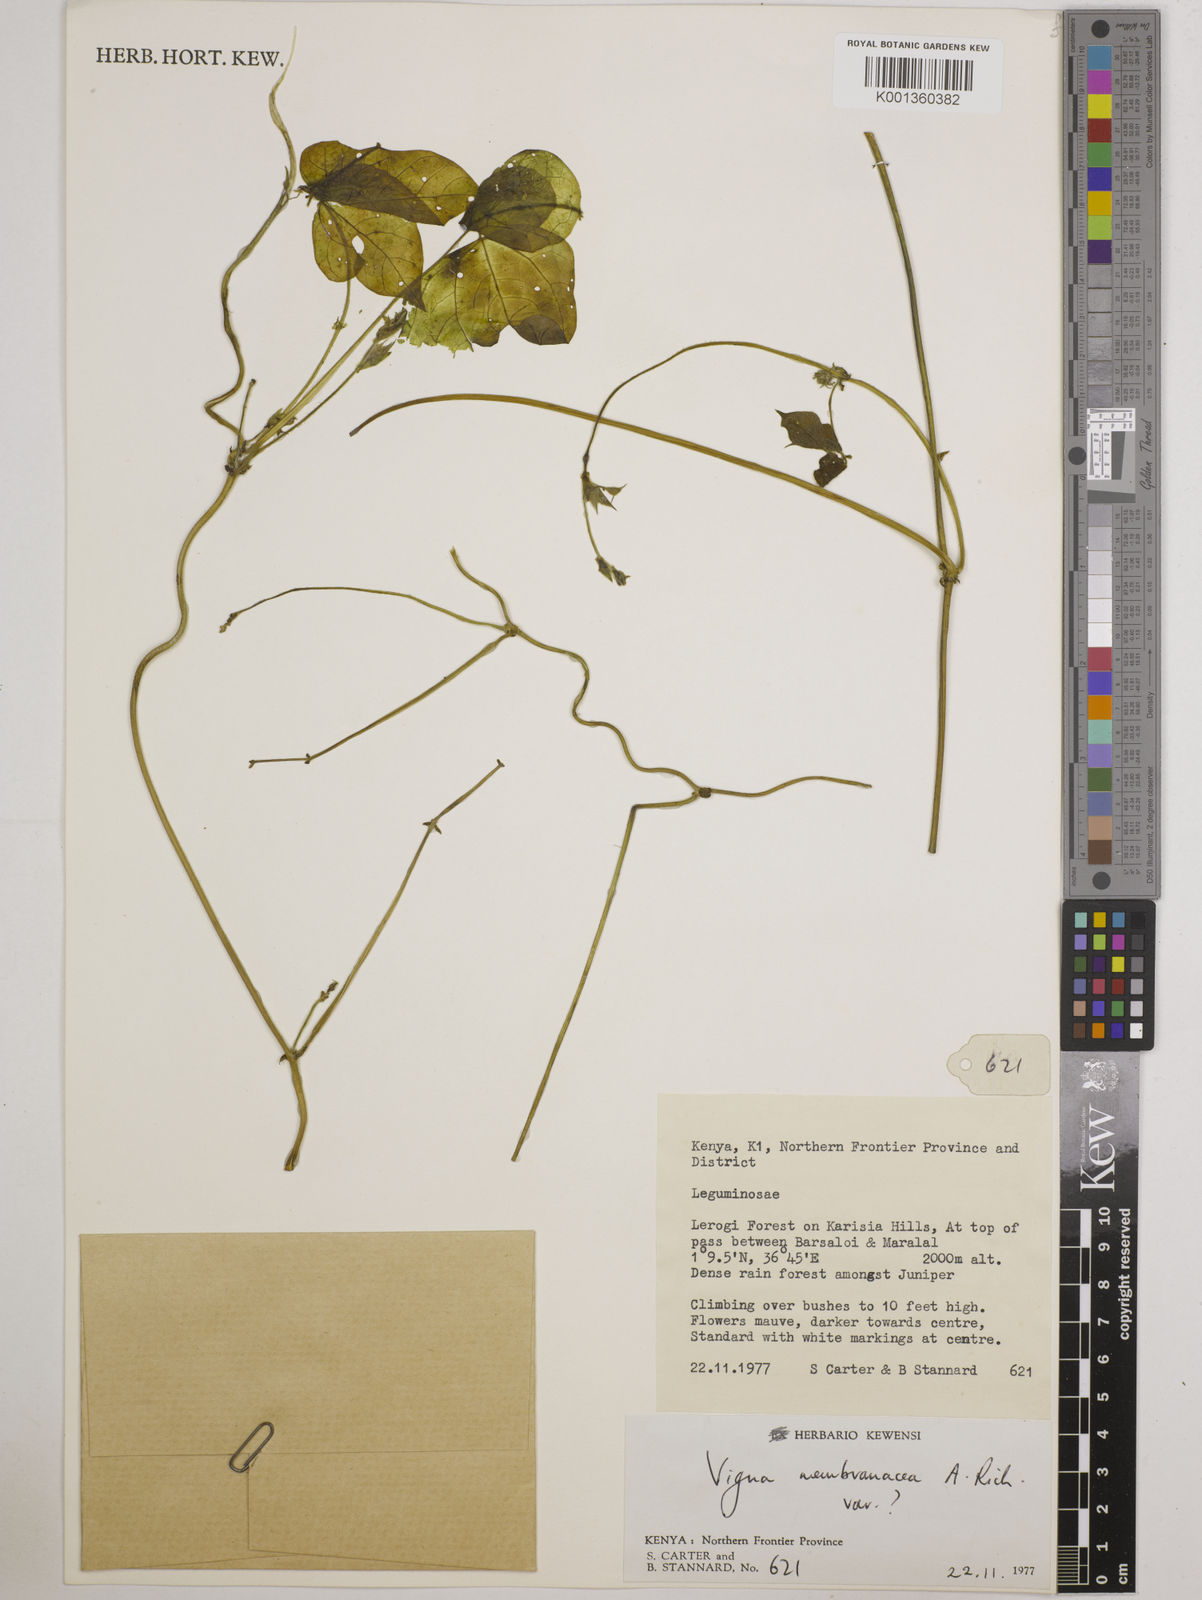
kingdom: Plantae
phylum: Tracheophyta
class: Magnoliopsida
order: Fabales
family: Fabaceae
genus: Vigna
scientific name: Vigna membranacea
